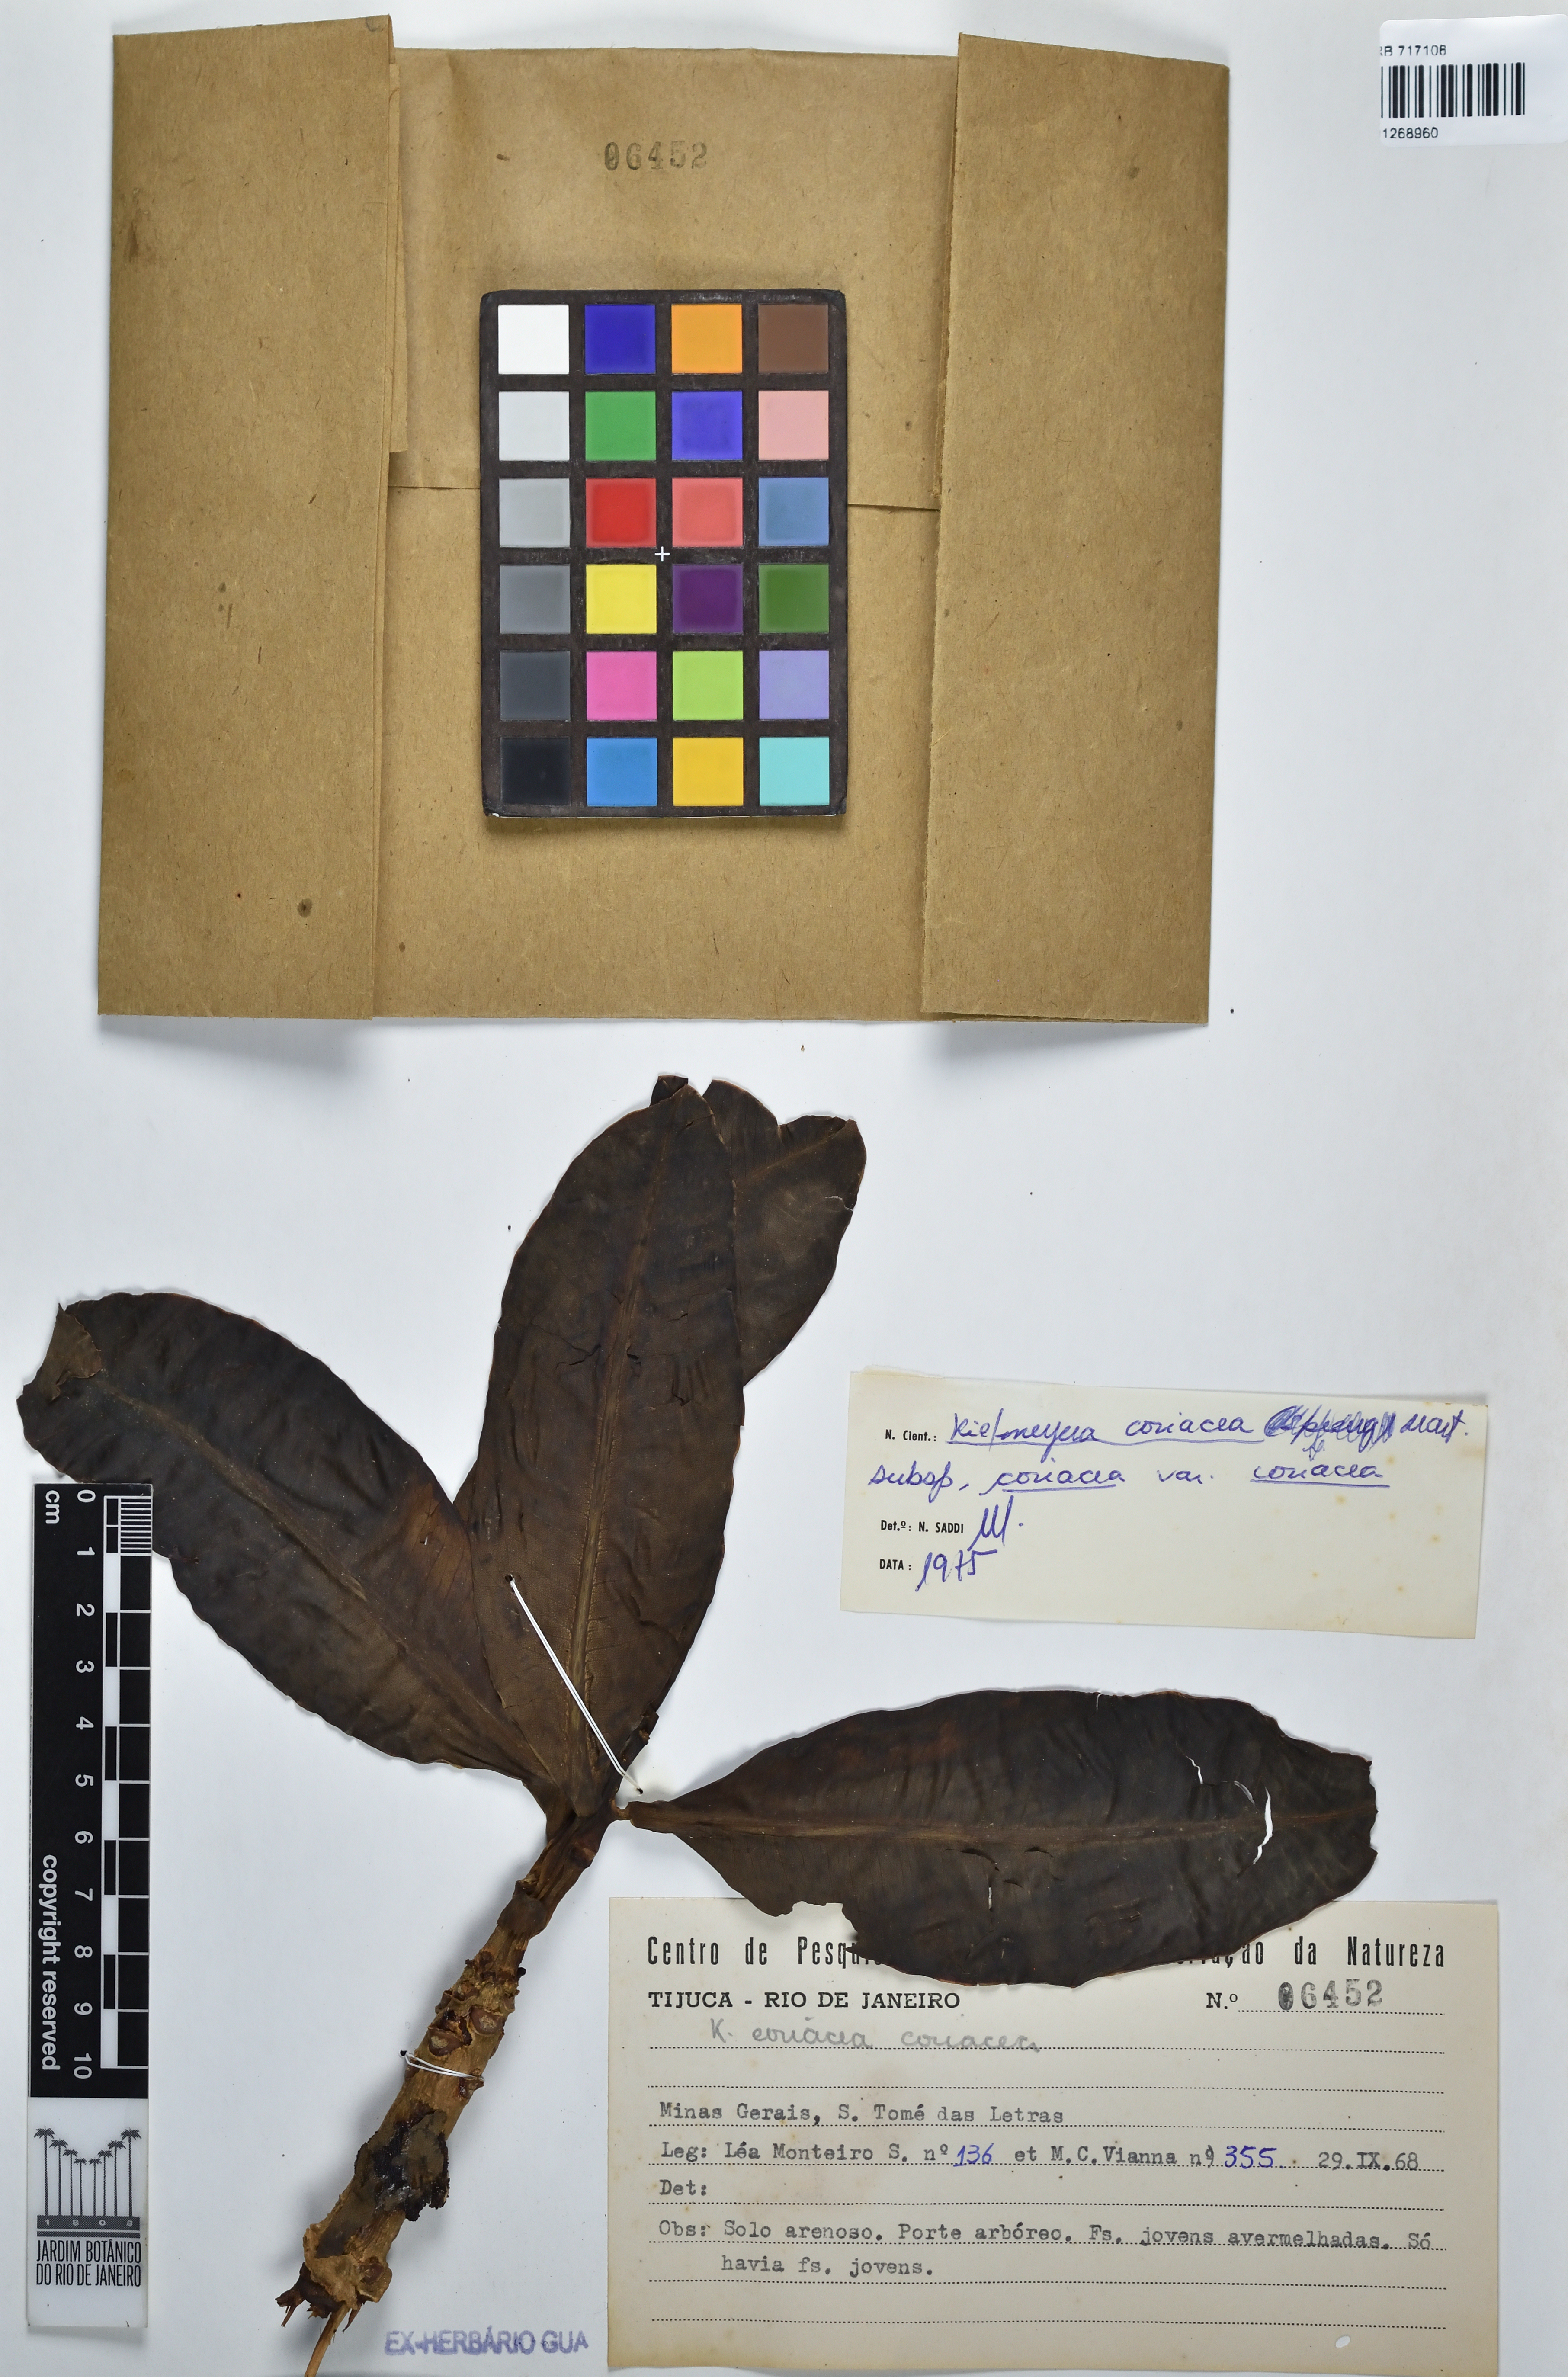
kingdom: Plantae
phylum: Tracheophyta
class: Magnoliopsida
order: Malpighiales
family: Calophyllaceae
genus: Kielmeyera
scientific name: Kielmeyera coriacea
